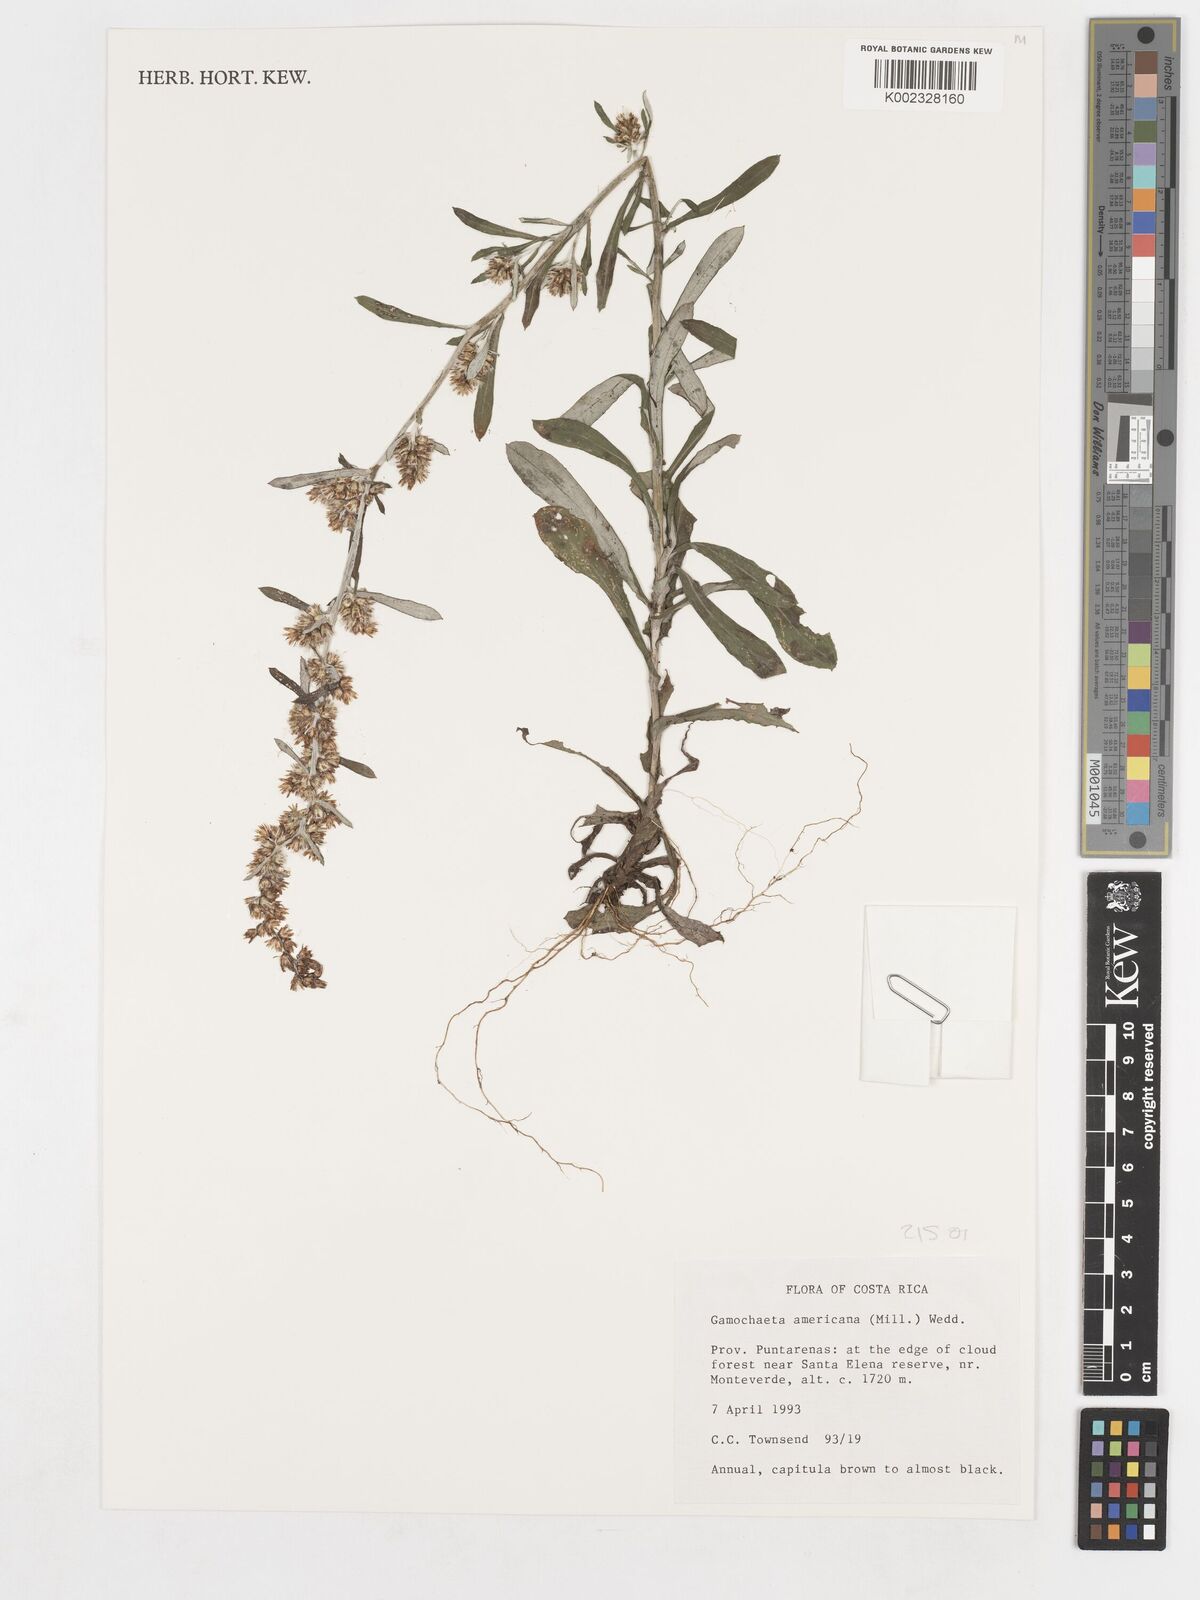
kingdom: Plantae
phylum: Tracheophyta
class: Magnoliopsida
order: Asterales
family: Asteraceae
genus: Gamochaeta
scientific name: Gamochaeta americana
